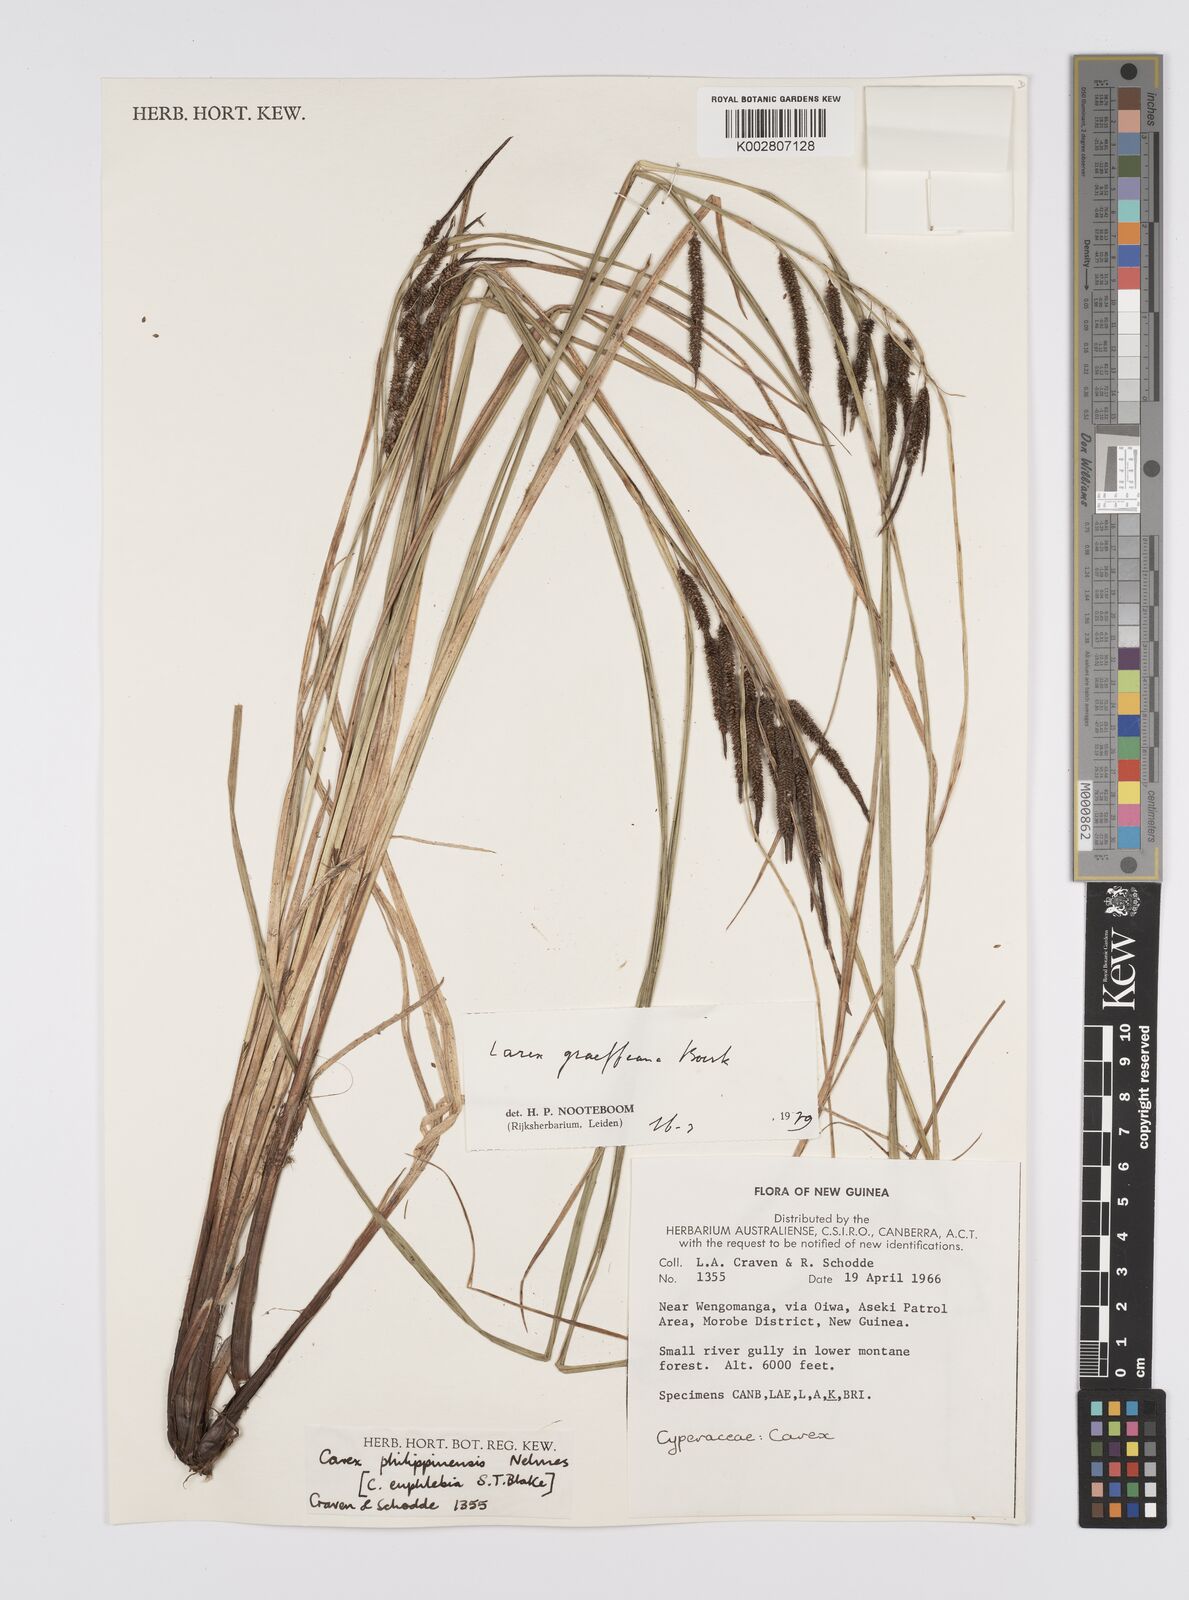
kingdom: Plantae
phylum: Tracheophyta
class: Liliopsida
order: Poales
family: Cyperaceae
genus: Carex
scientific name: Carex graeffeana
